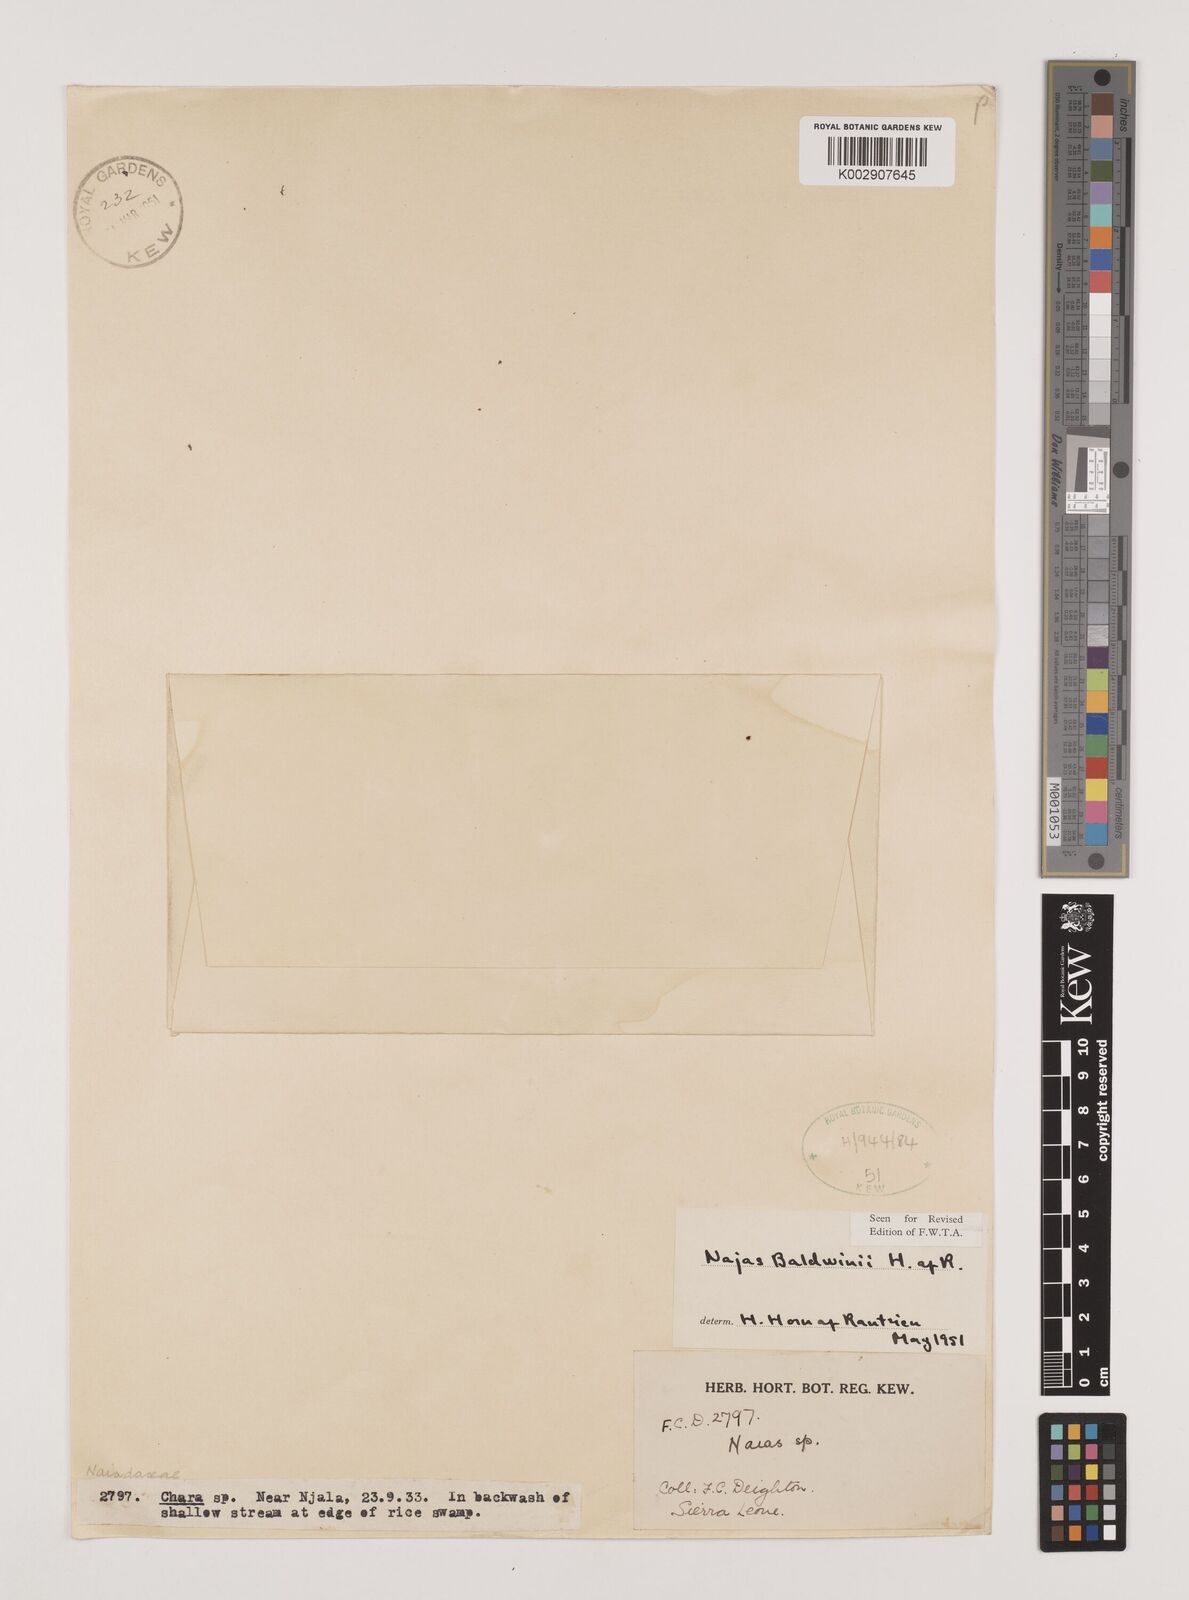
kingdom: Plantae
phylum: Tracheophyta
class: Liliopsida
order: Alismatales
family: Hydrocharitaceae
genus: Najas
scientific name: Najas baldwinii
